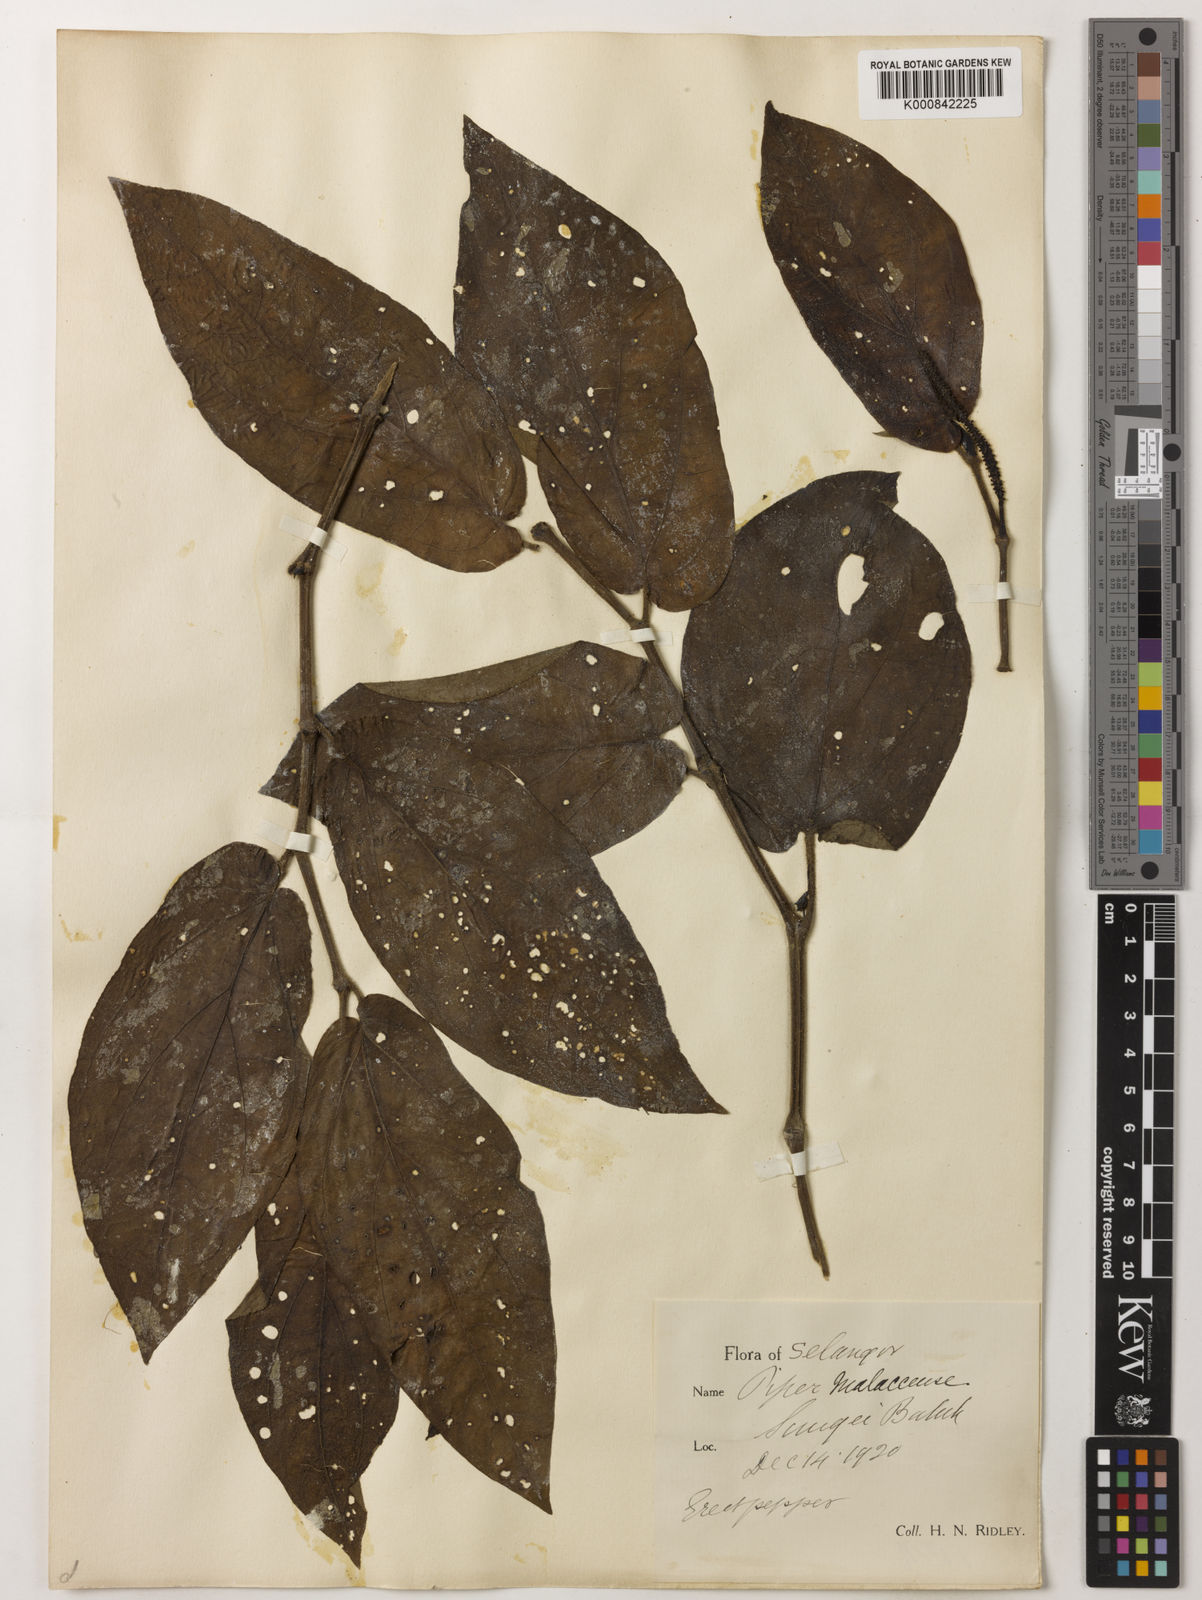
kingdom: Plantae
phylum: Tracheophyta
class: Magnoliopsida
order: Piperales
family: Piperaceae
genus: Piper
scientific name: Piper ridleyi
